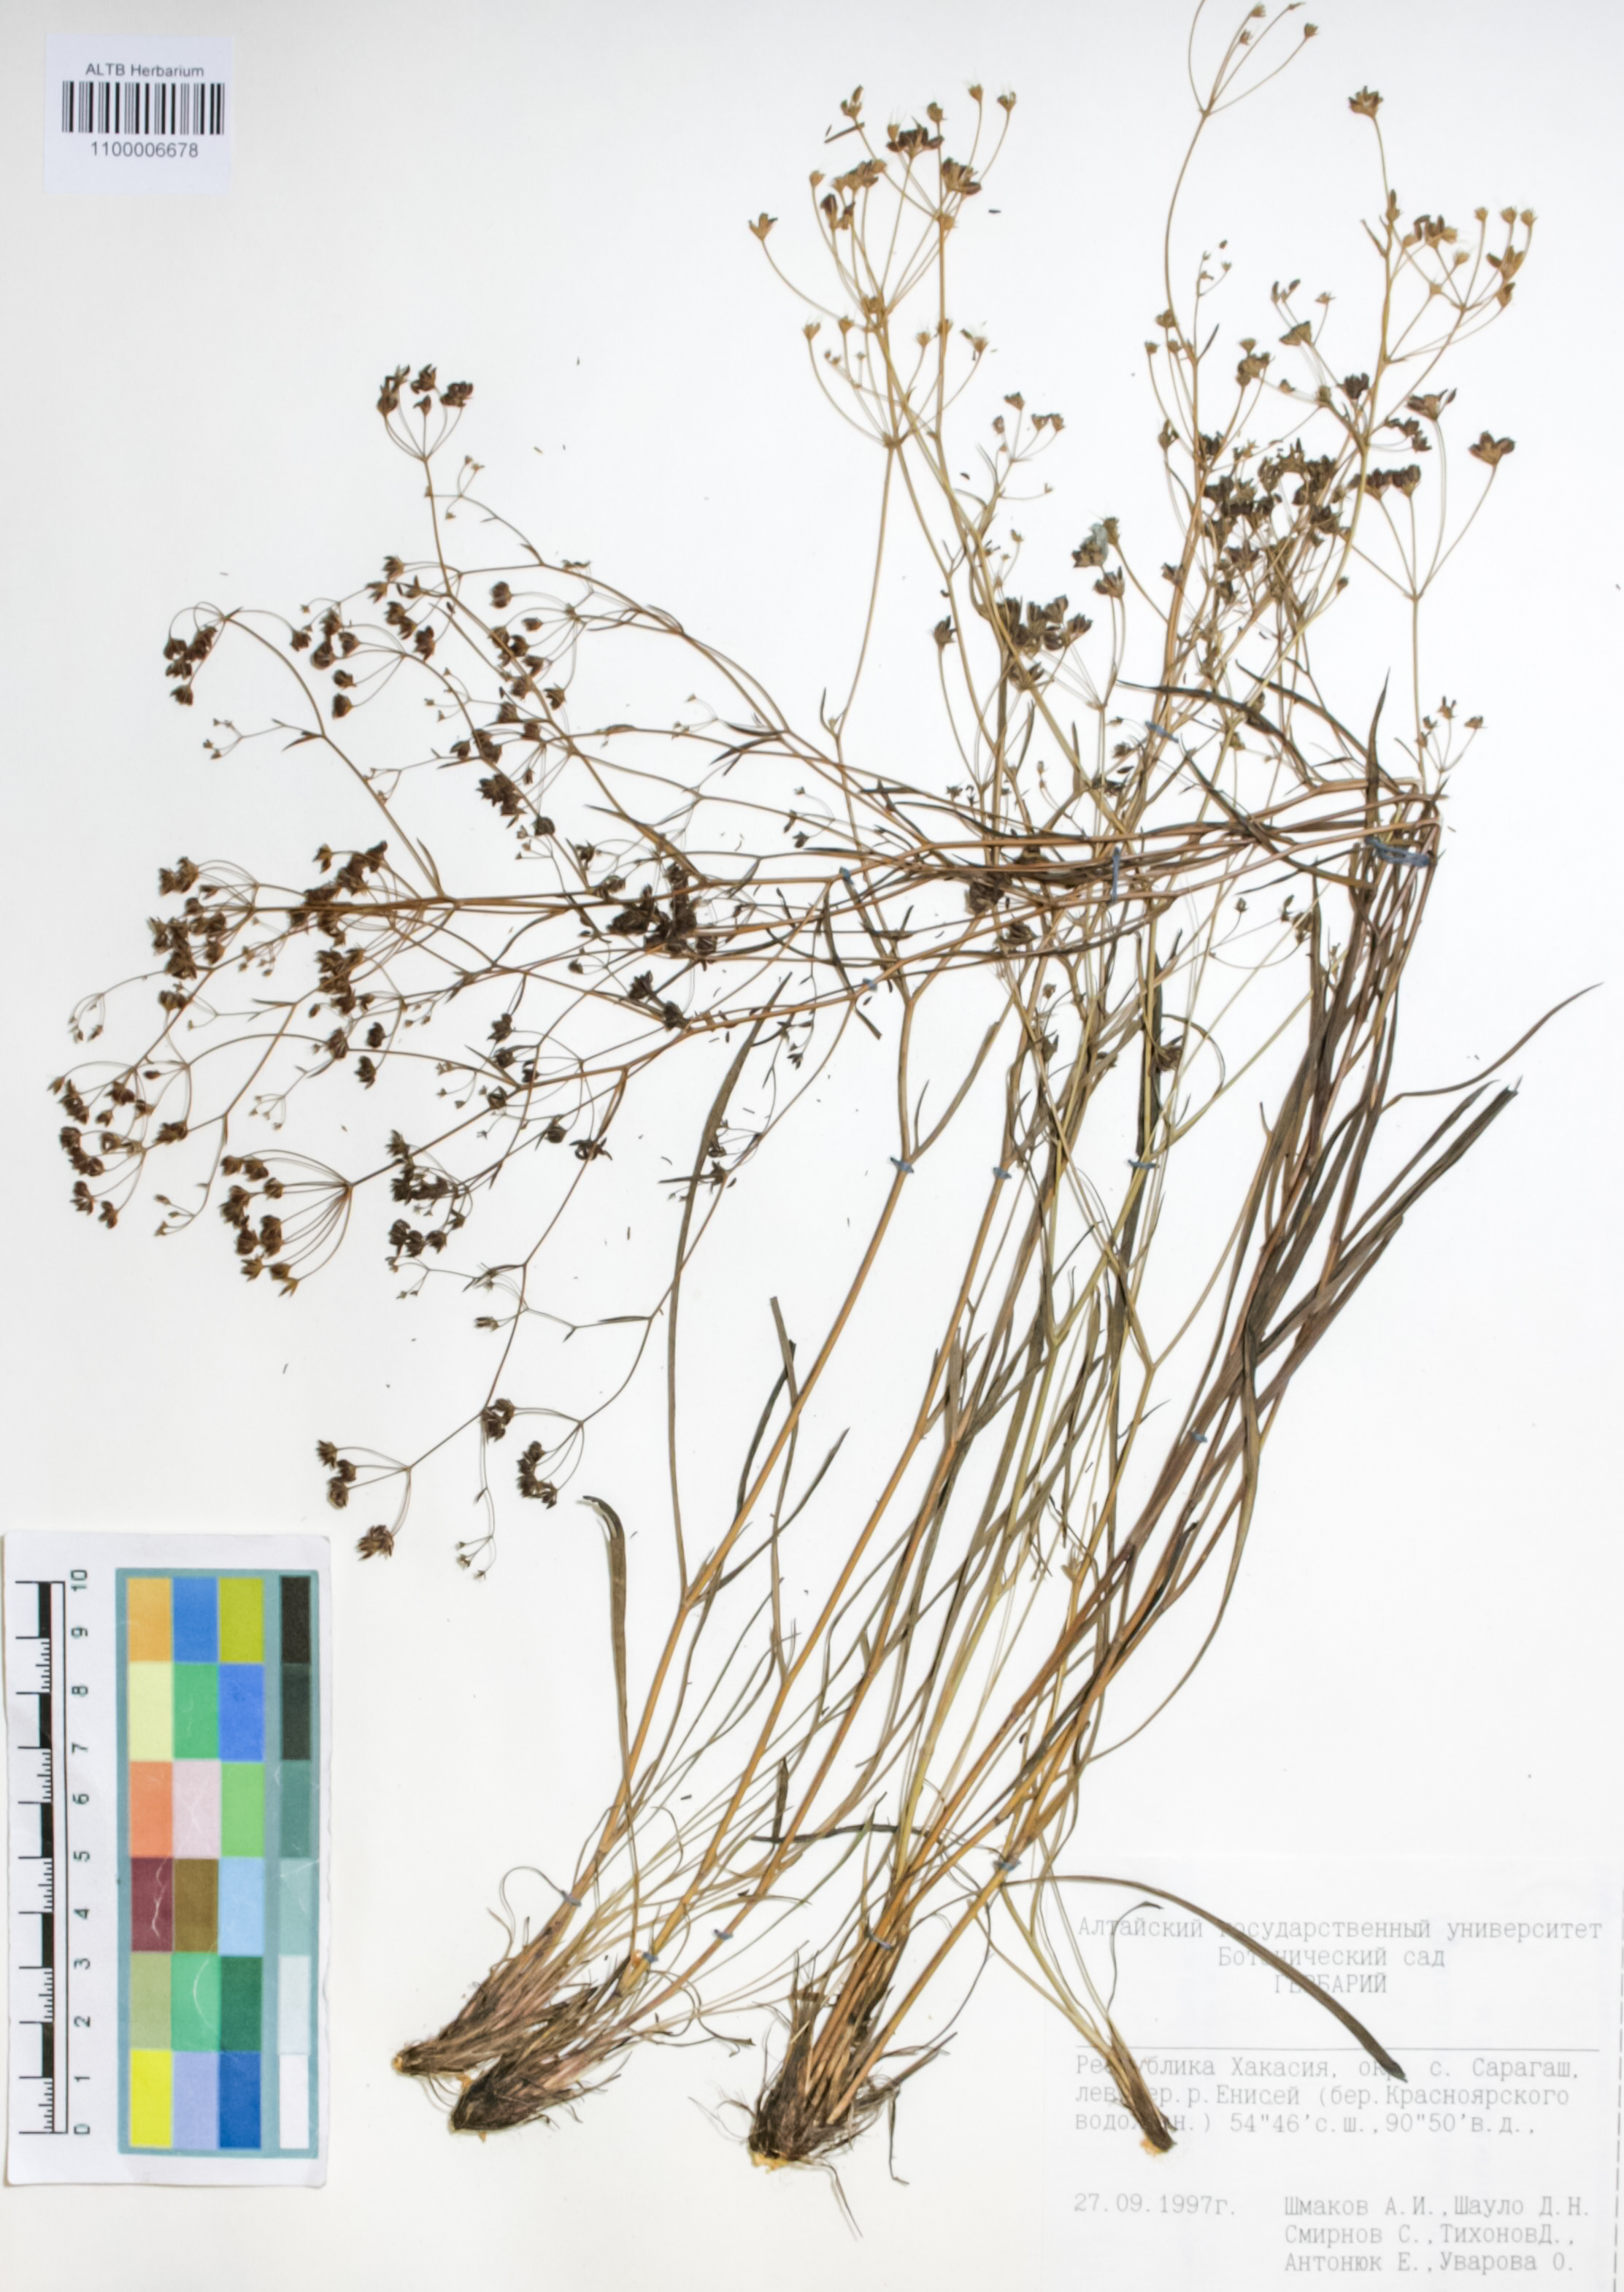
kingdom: Plantae
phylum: Tracheophyta
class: Magnoliopsida
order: Apiales
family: Apiaceae
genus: Bupleurum
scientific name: Bupleurum scorzonerifolium
